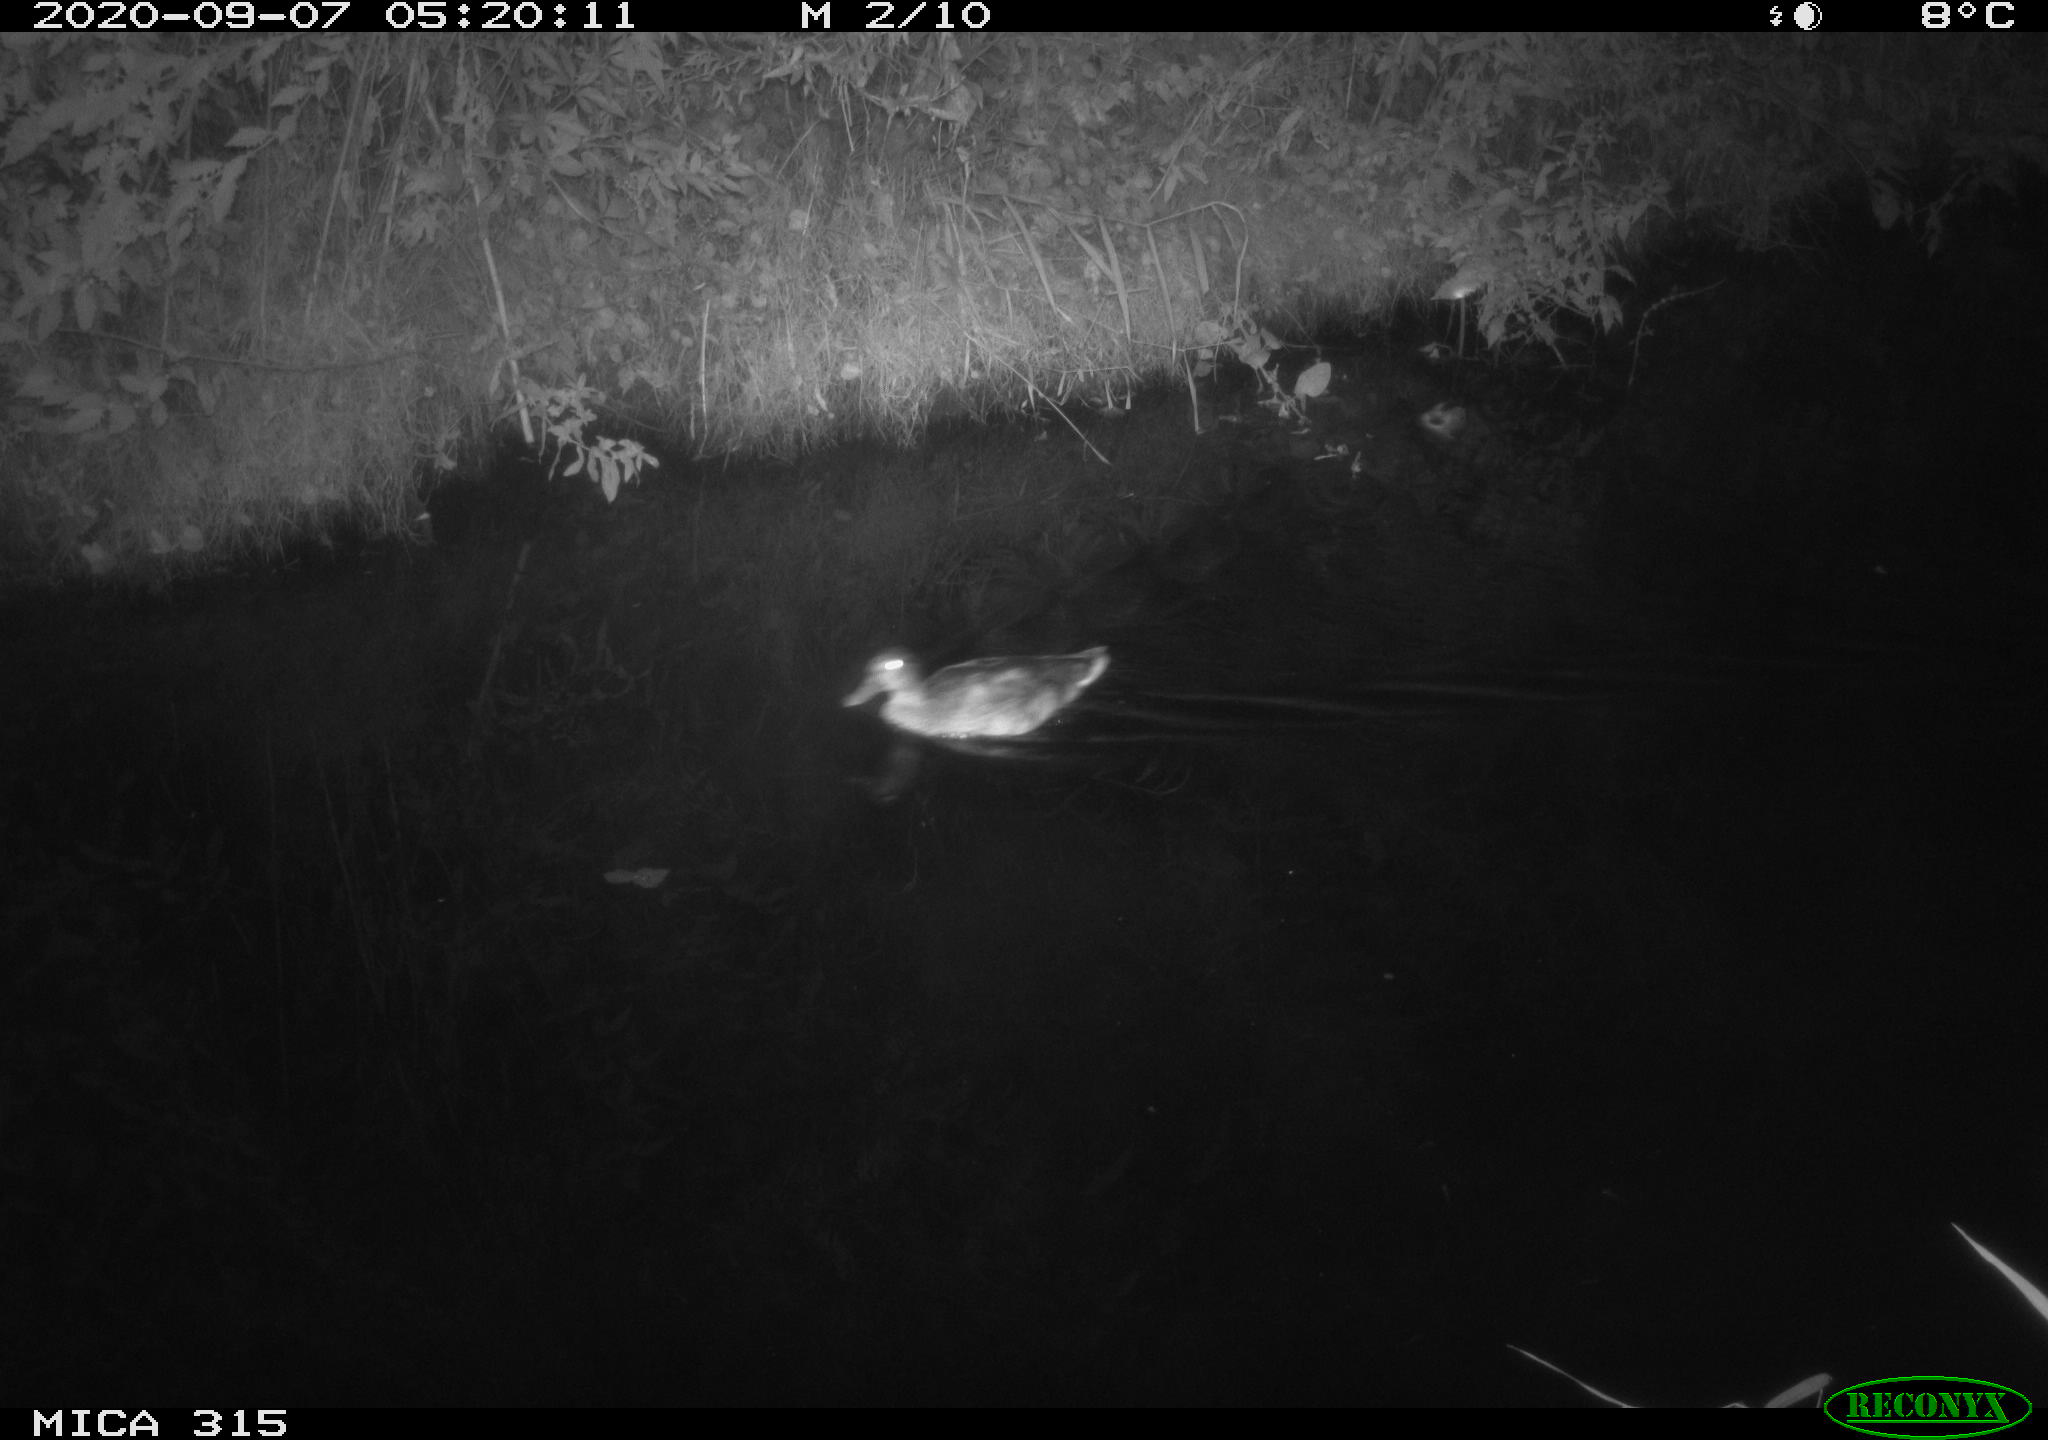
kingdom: Animalia
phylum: Chordata
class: Aves
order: Anseriformes
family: Anatidae
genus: Anas
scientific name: Anas platyrhynchos
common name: Mallard
